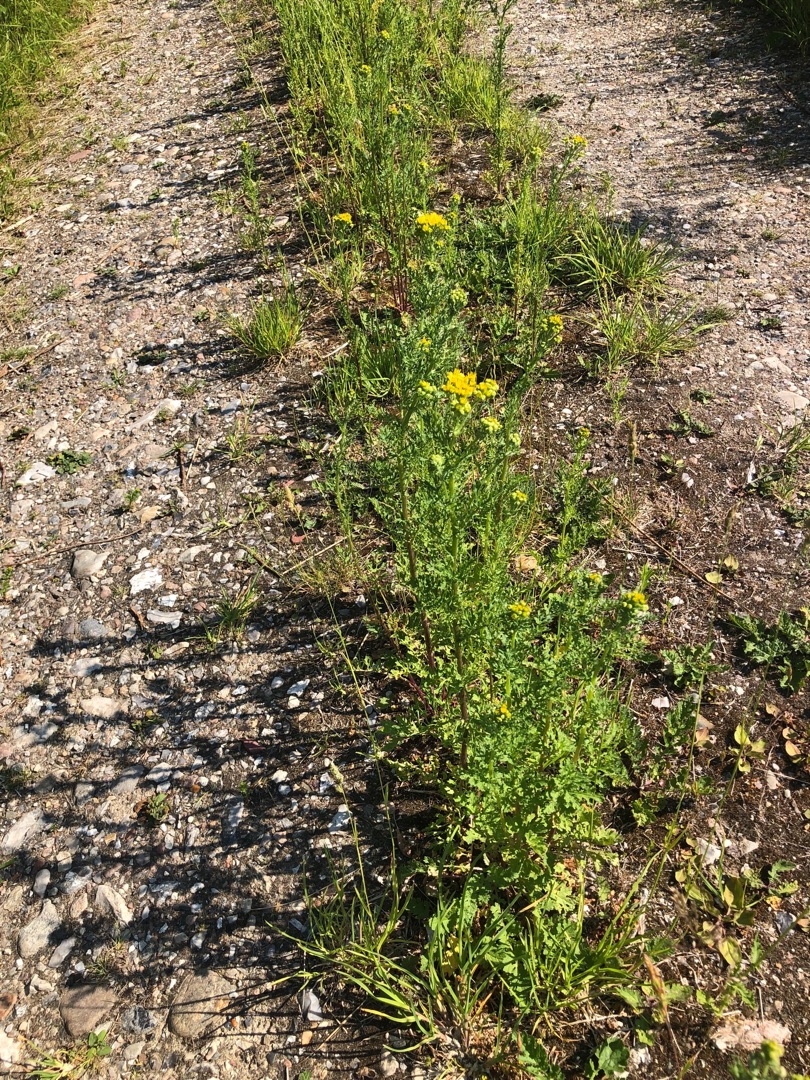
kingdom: Plantae
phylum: Tracheophyta
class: Magnoliopsida
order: Asterales
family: Asteraceae
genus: Jacobaea
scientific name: Jacobaea vulgaris
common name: Eng-brandbæger
